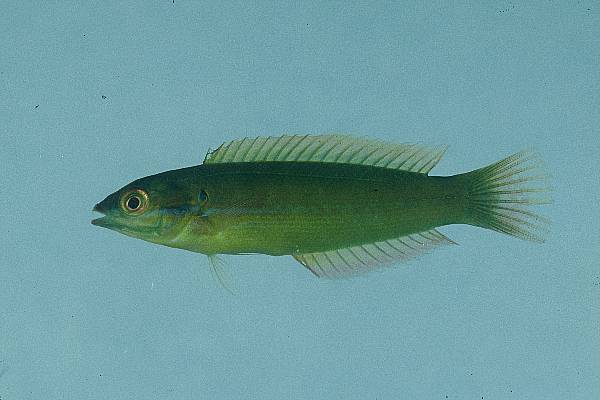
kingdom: Animalia
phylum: Chordata
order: Perciformes
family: Labridae
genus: Coris
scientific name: Coris caudimacula
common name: Spottail coris
